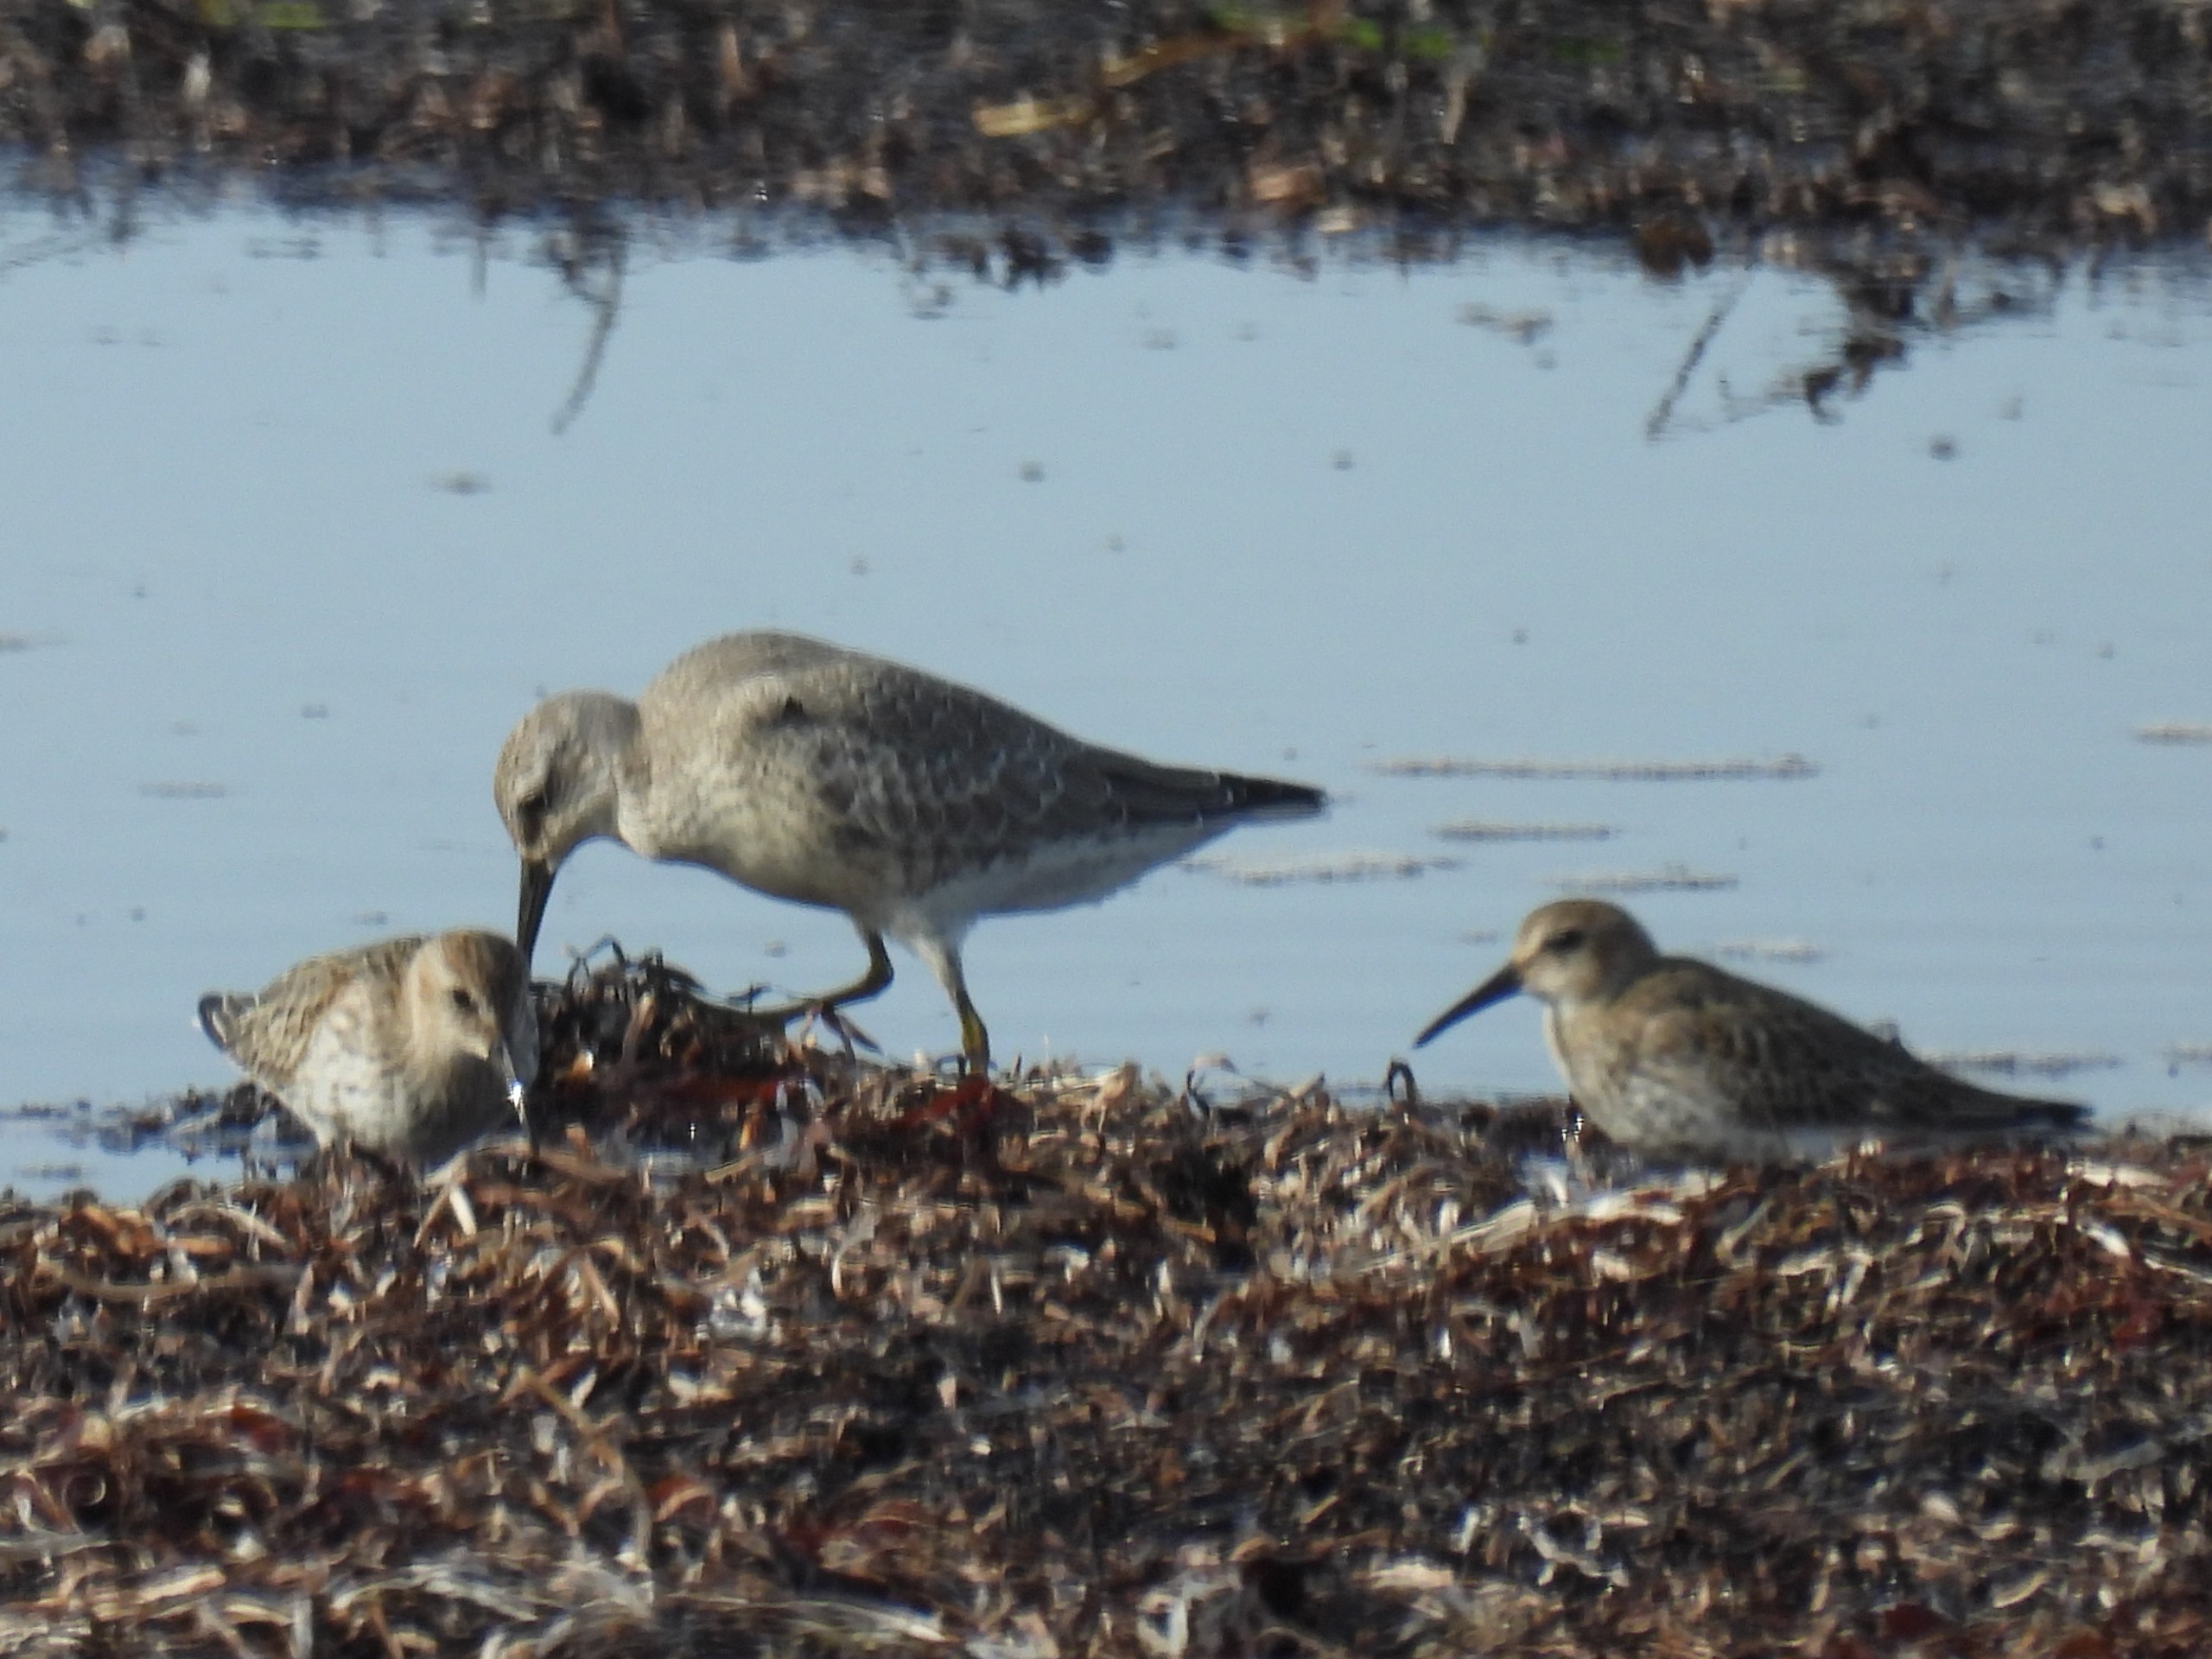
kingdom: Animalia
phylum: Chordata
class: Aves
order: Charadriiformes
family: Scolopacidae
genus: Calidris
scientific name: Calidris canutus
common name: Islandsk ryle
